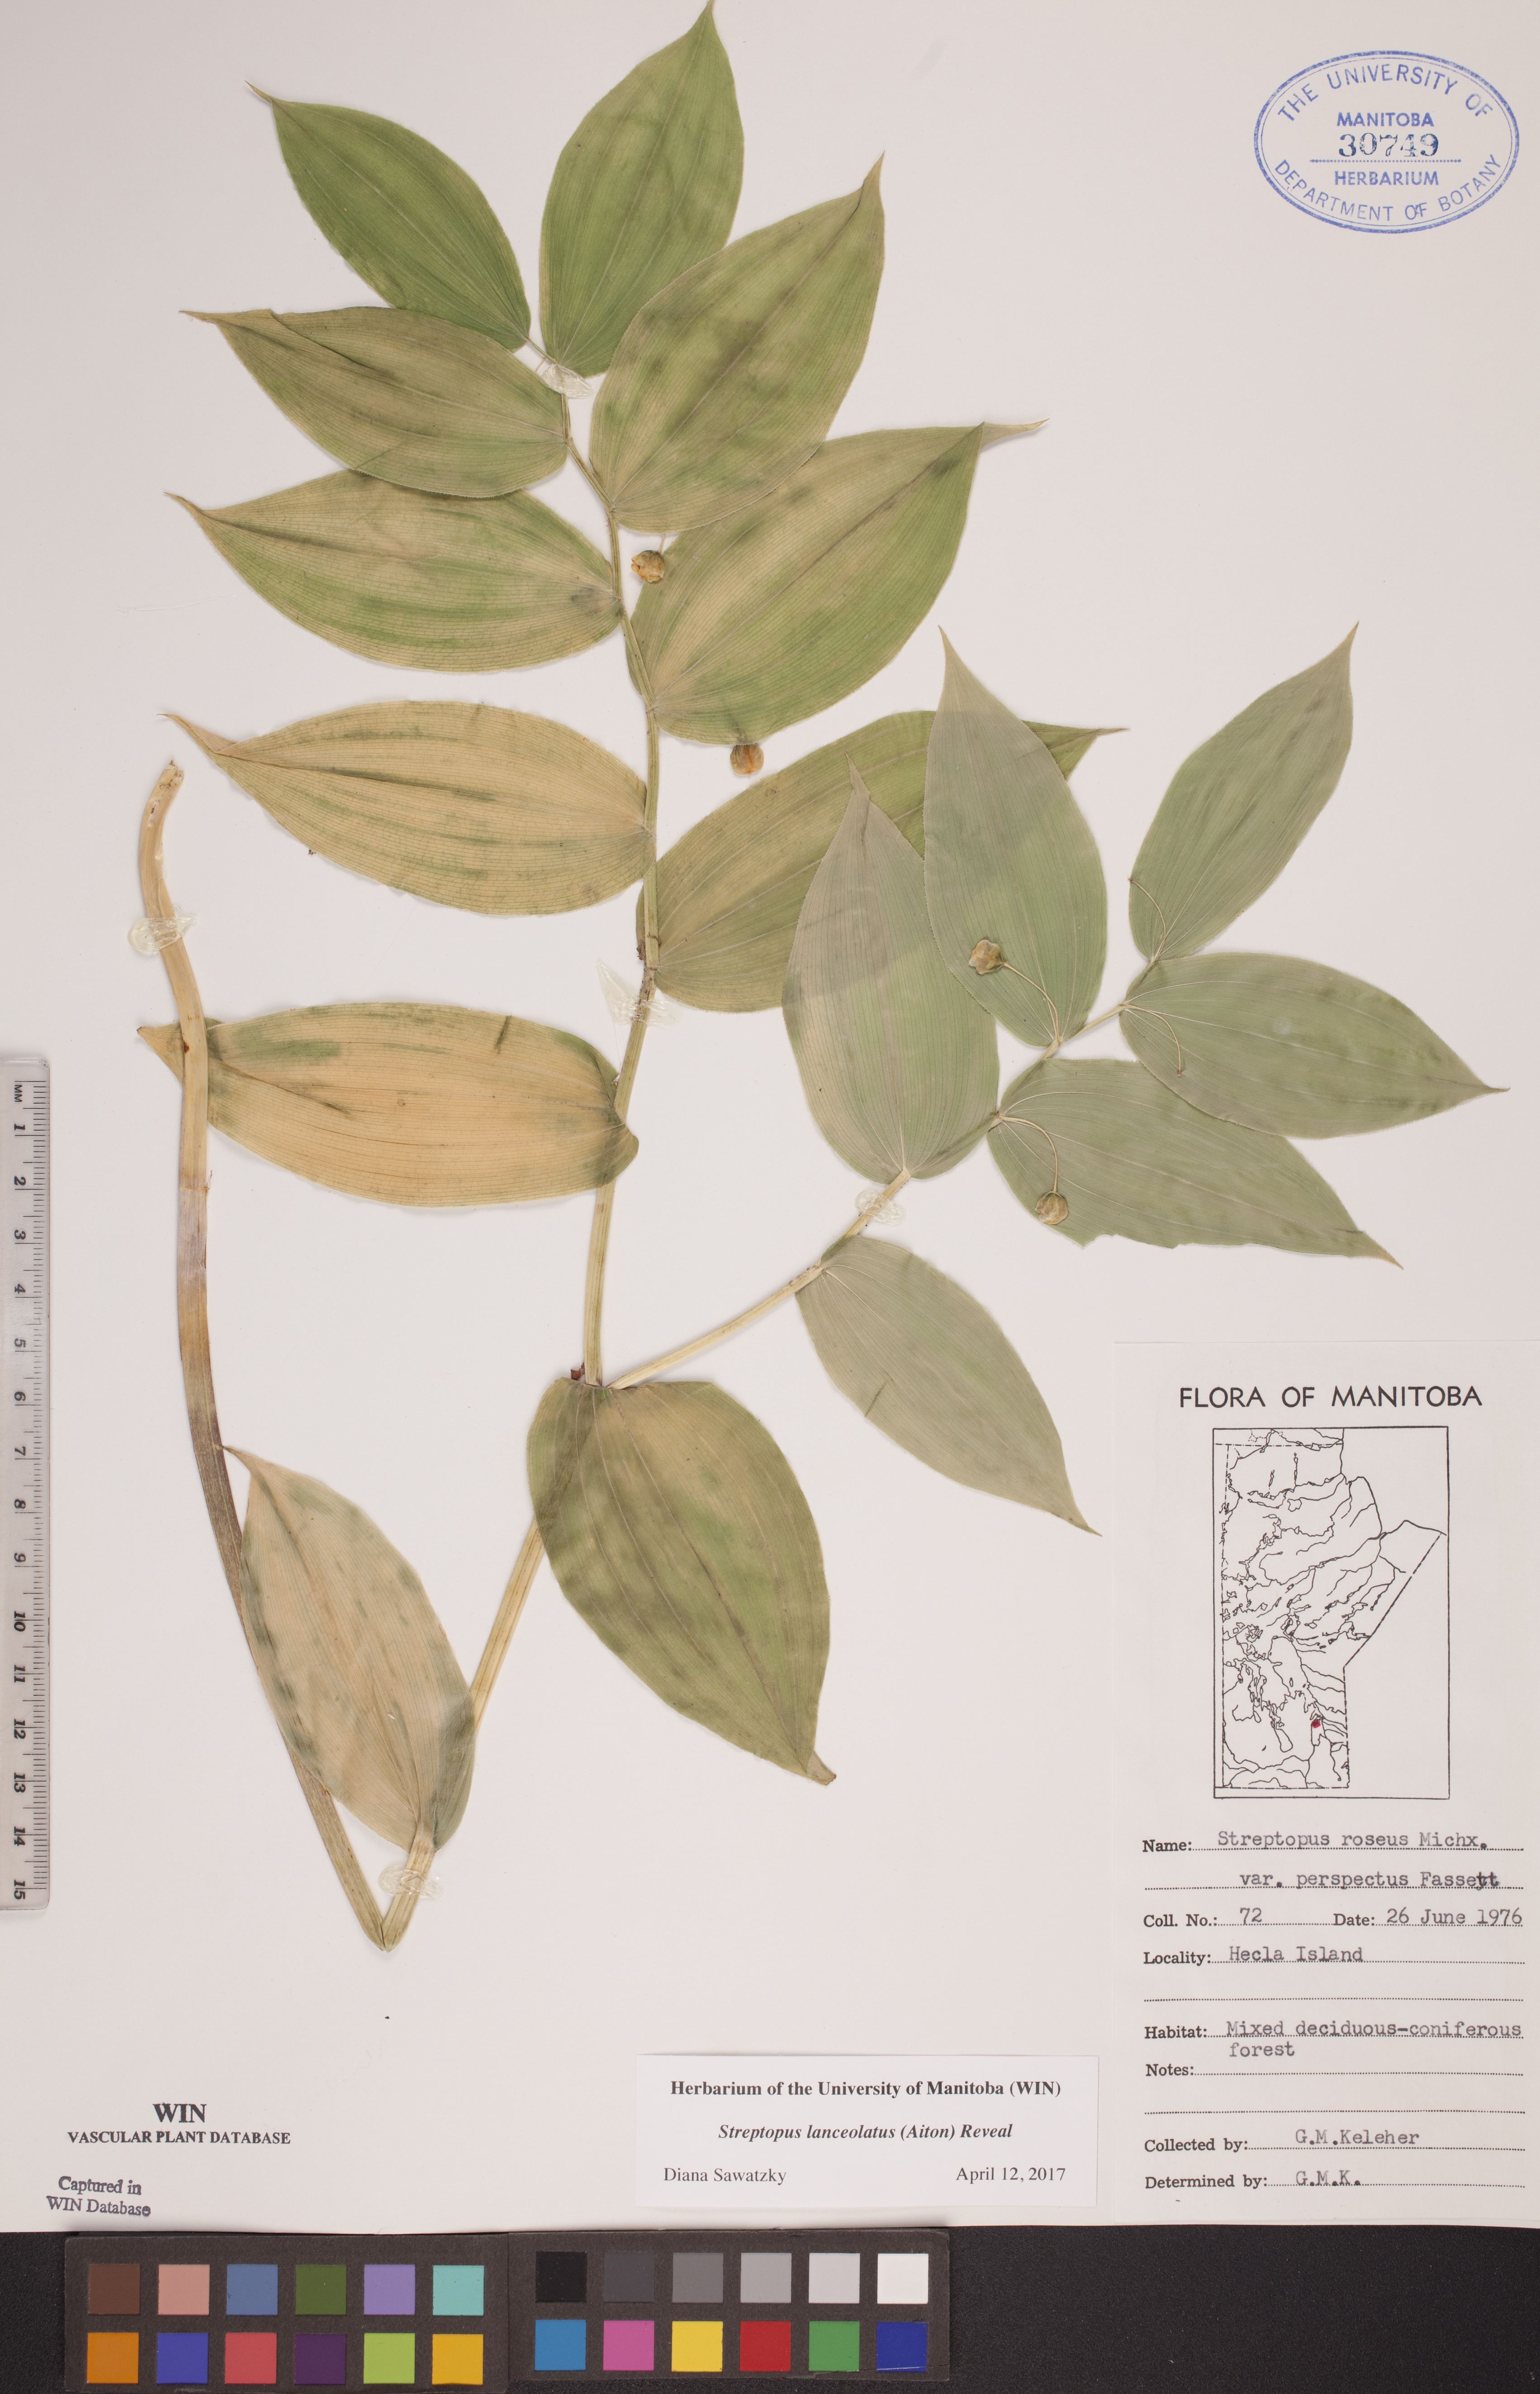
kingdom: Plantae
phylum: Tracheophyta
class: Liliopsida
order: Liliales
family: Liliaceae
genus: Streptopus
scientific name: Streptopus lanceolatus
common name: Rose mandarin
